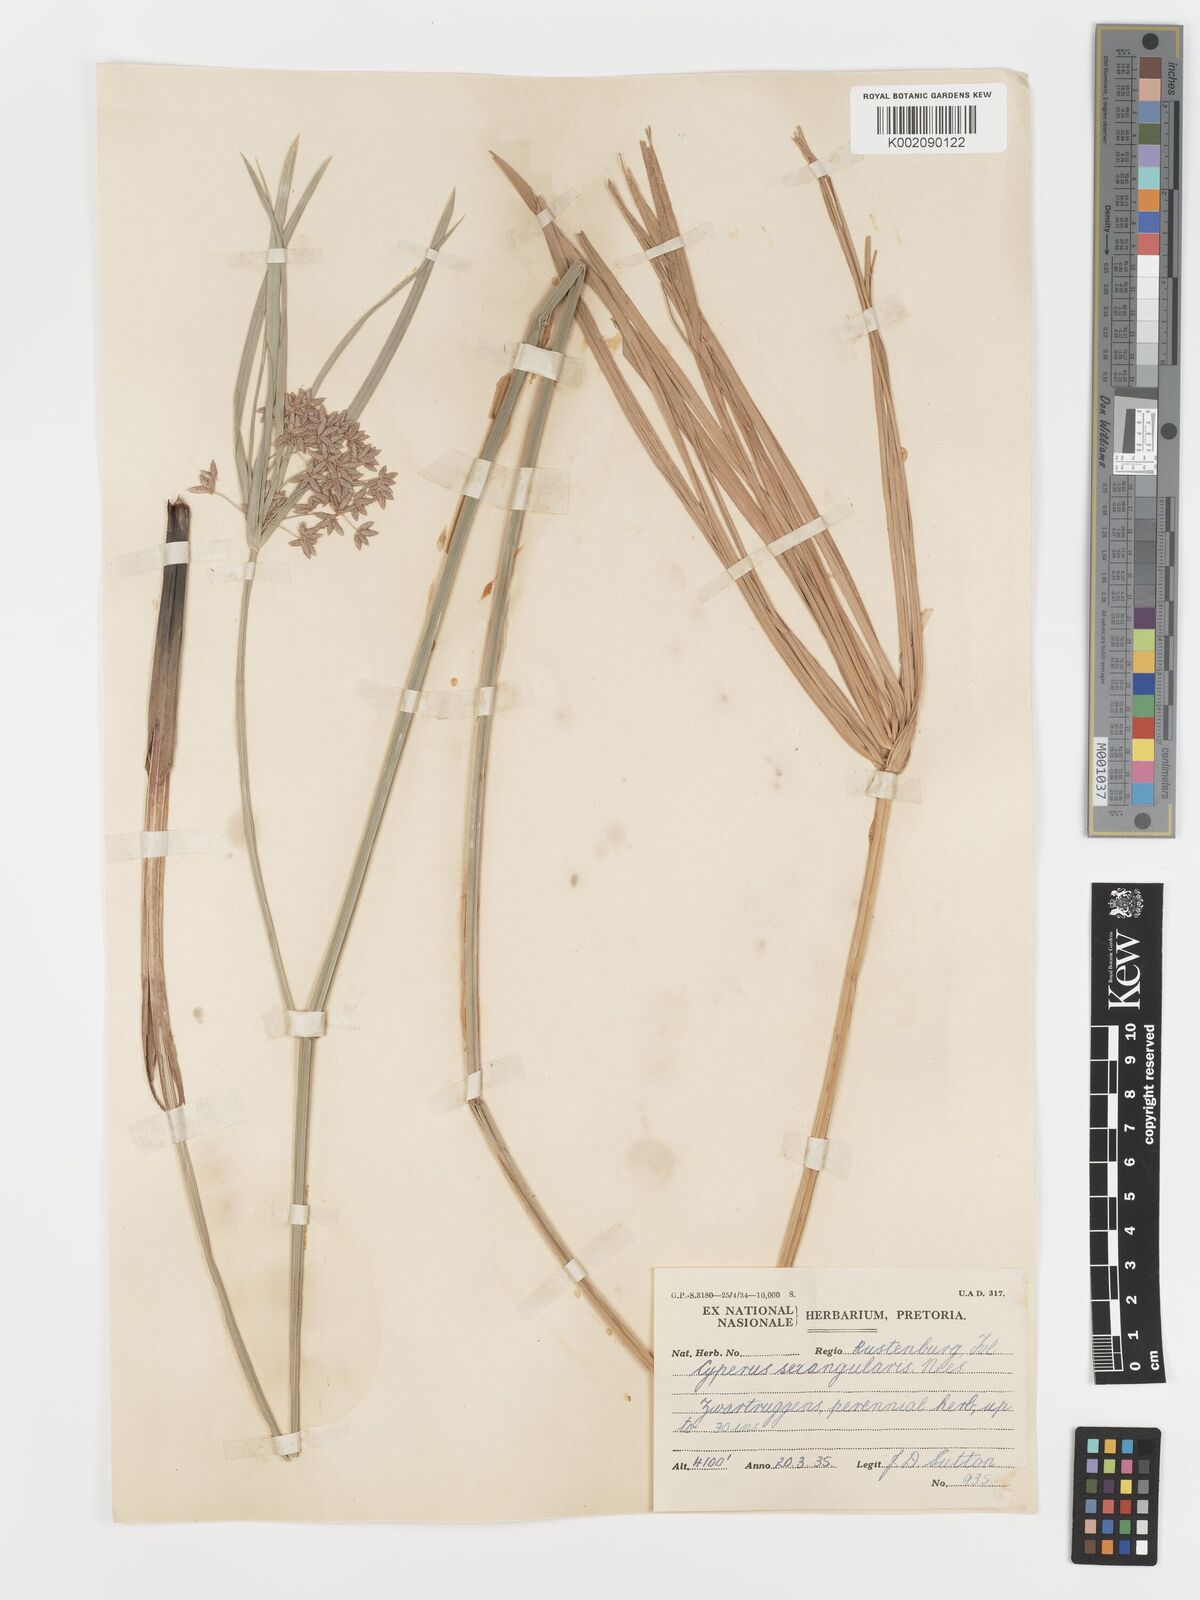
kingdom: Plantae
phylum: Tracheophyta
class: Liliopsida
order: Poales
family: Cyperaceae
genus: Cyperus
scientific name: Cyperus sexangularis
